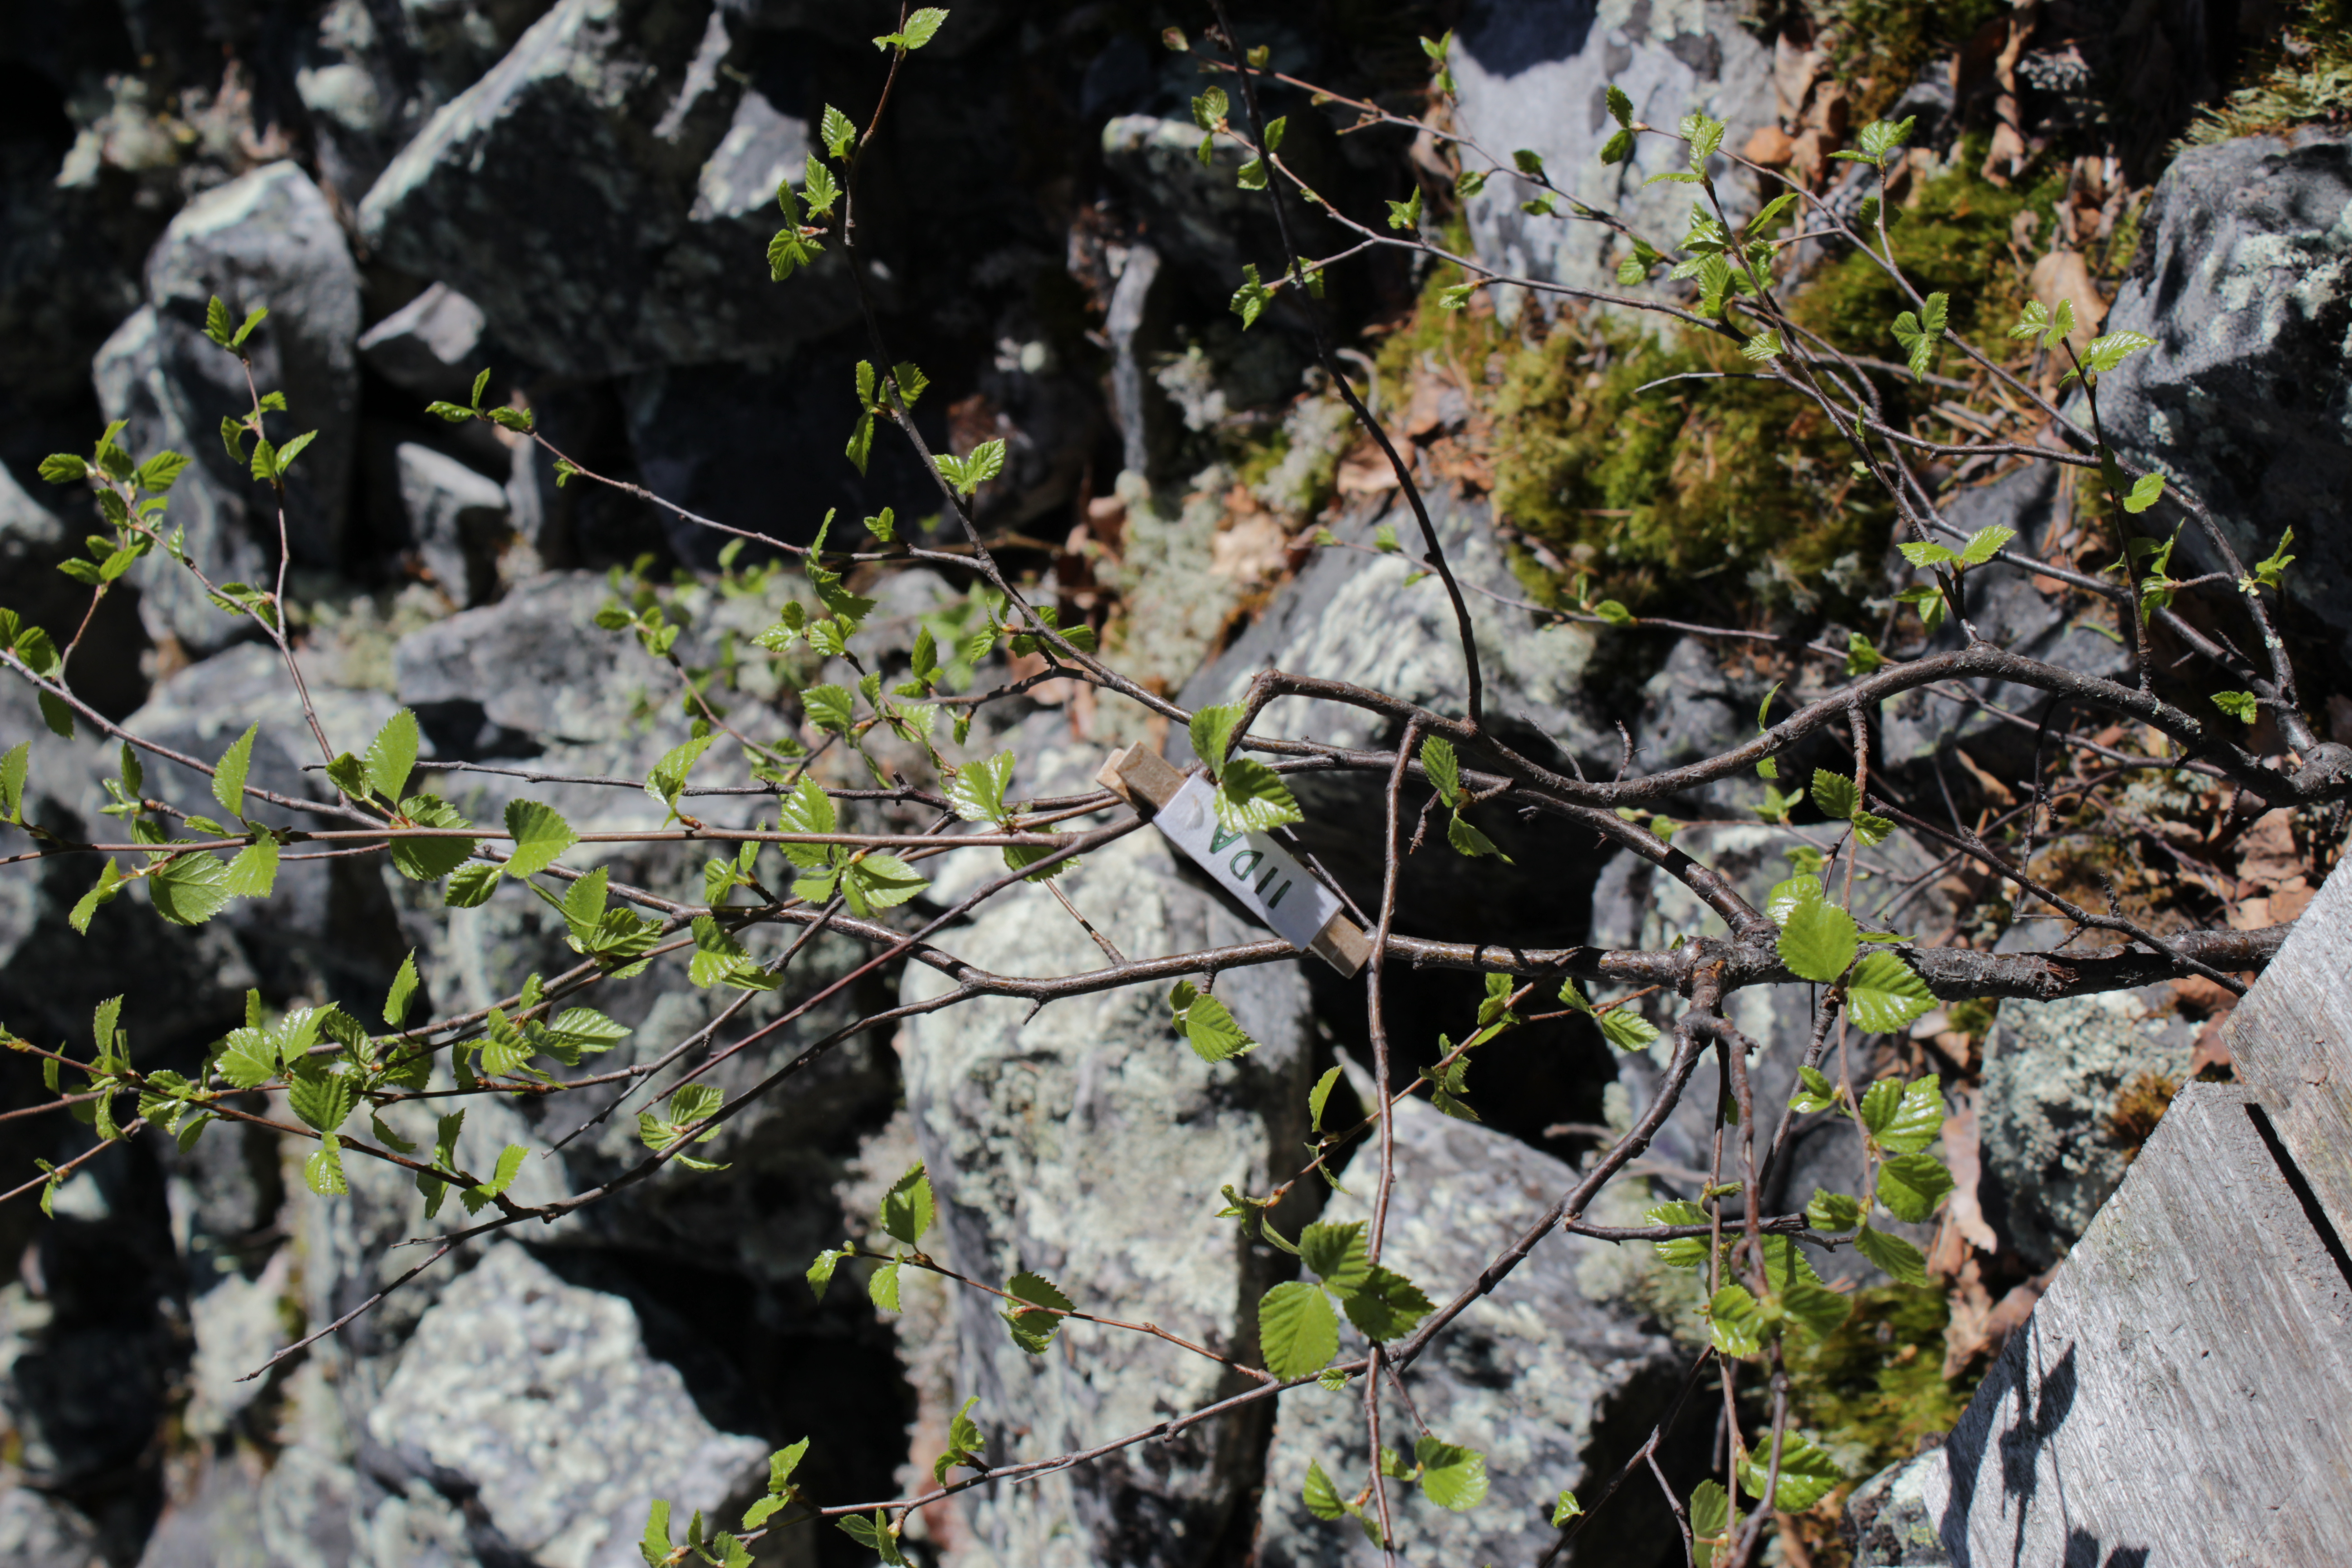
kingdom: Plantae
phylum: Tracheophyta
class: Magnoliopsida
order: Fagales
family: Betulaceae
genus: Betula
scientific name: Betula nana
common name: Arctic dwarf birch
